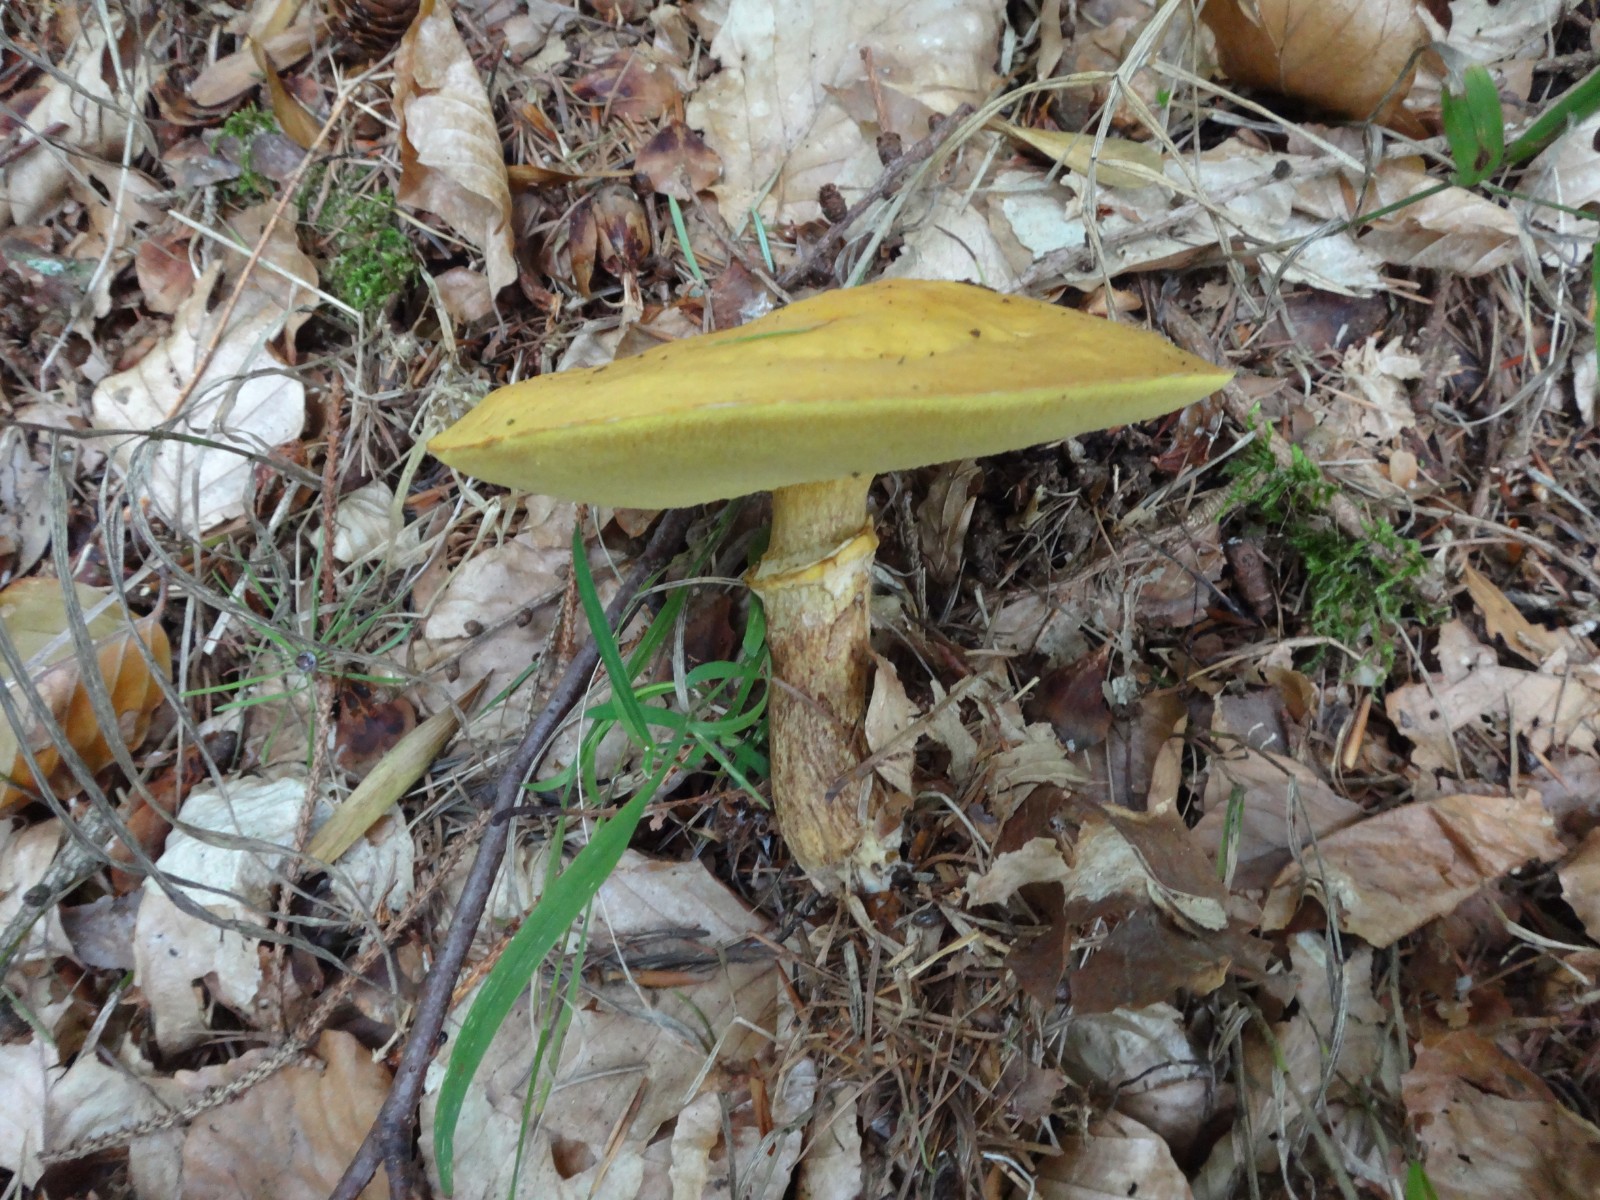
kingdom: Fungi
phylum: Basidiomycota
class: Agaricomycetes
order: Boletales
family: Suillaceae
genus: Suillus
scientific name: Suillus grevillei
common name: lærke-slimrørhat
